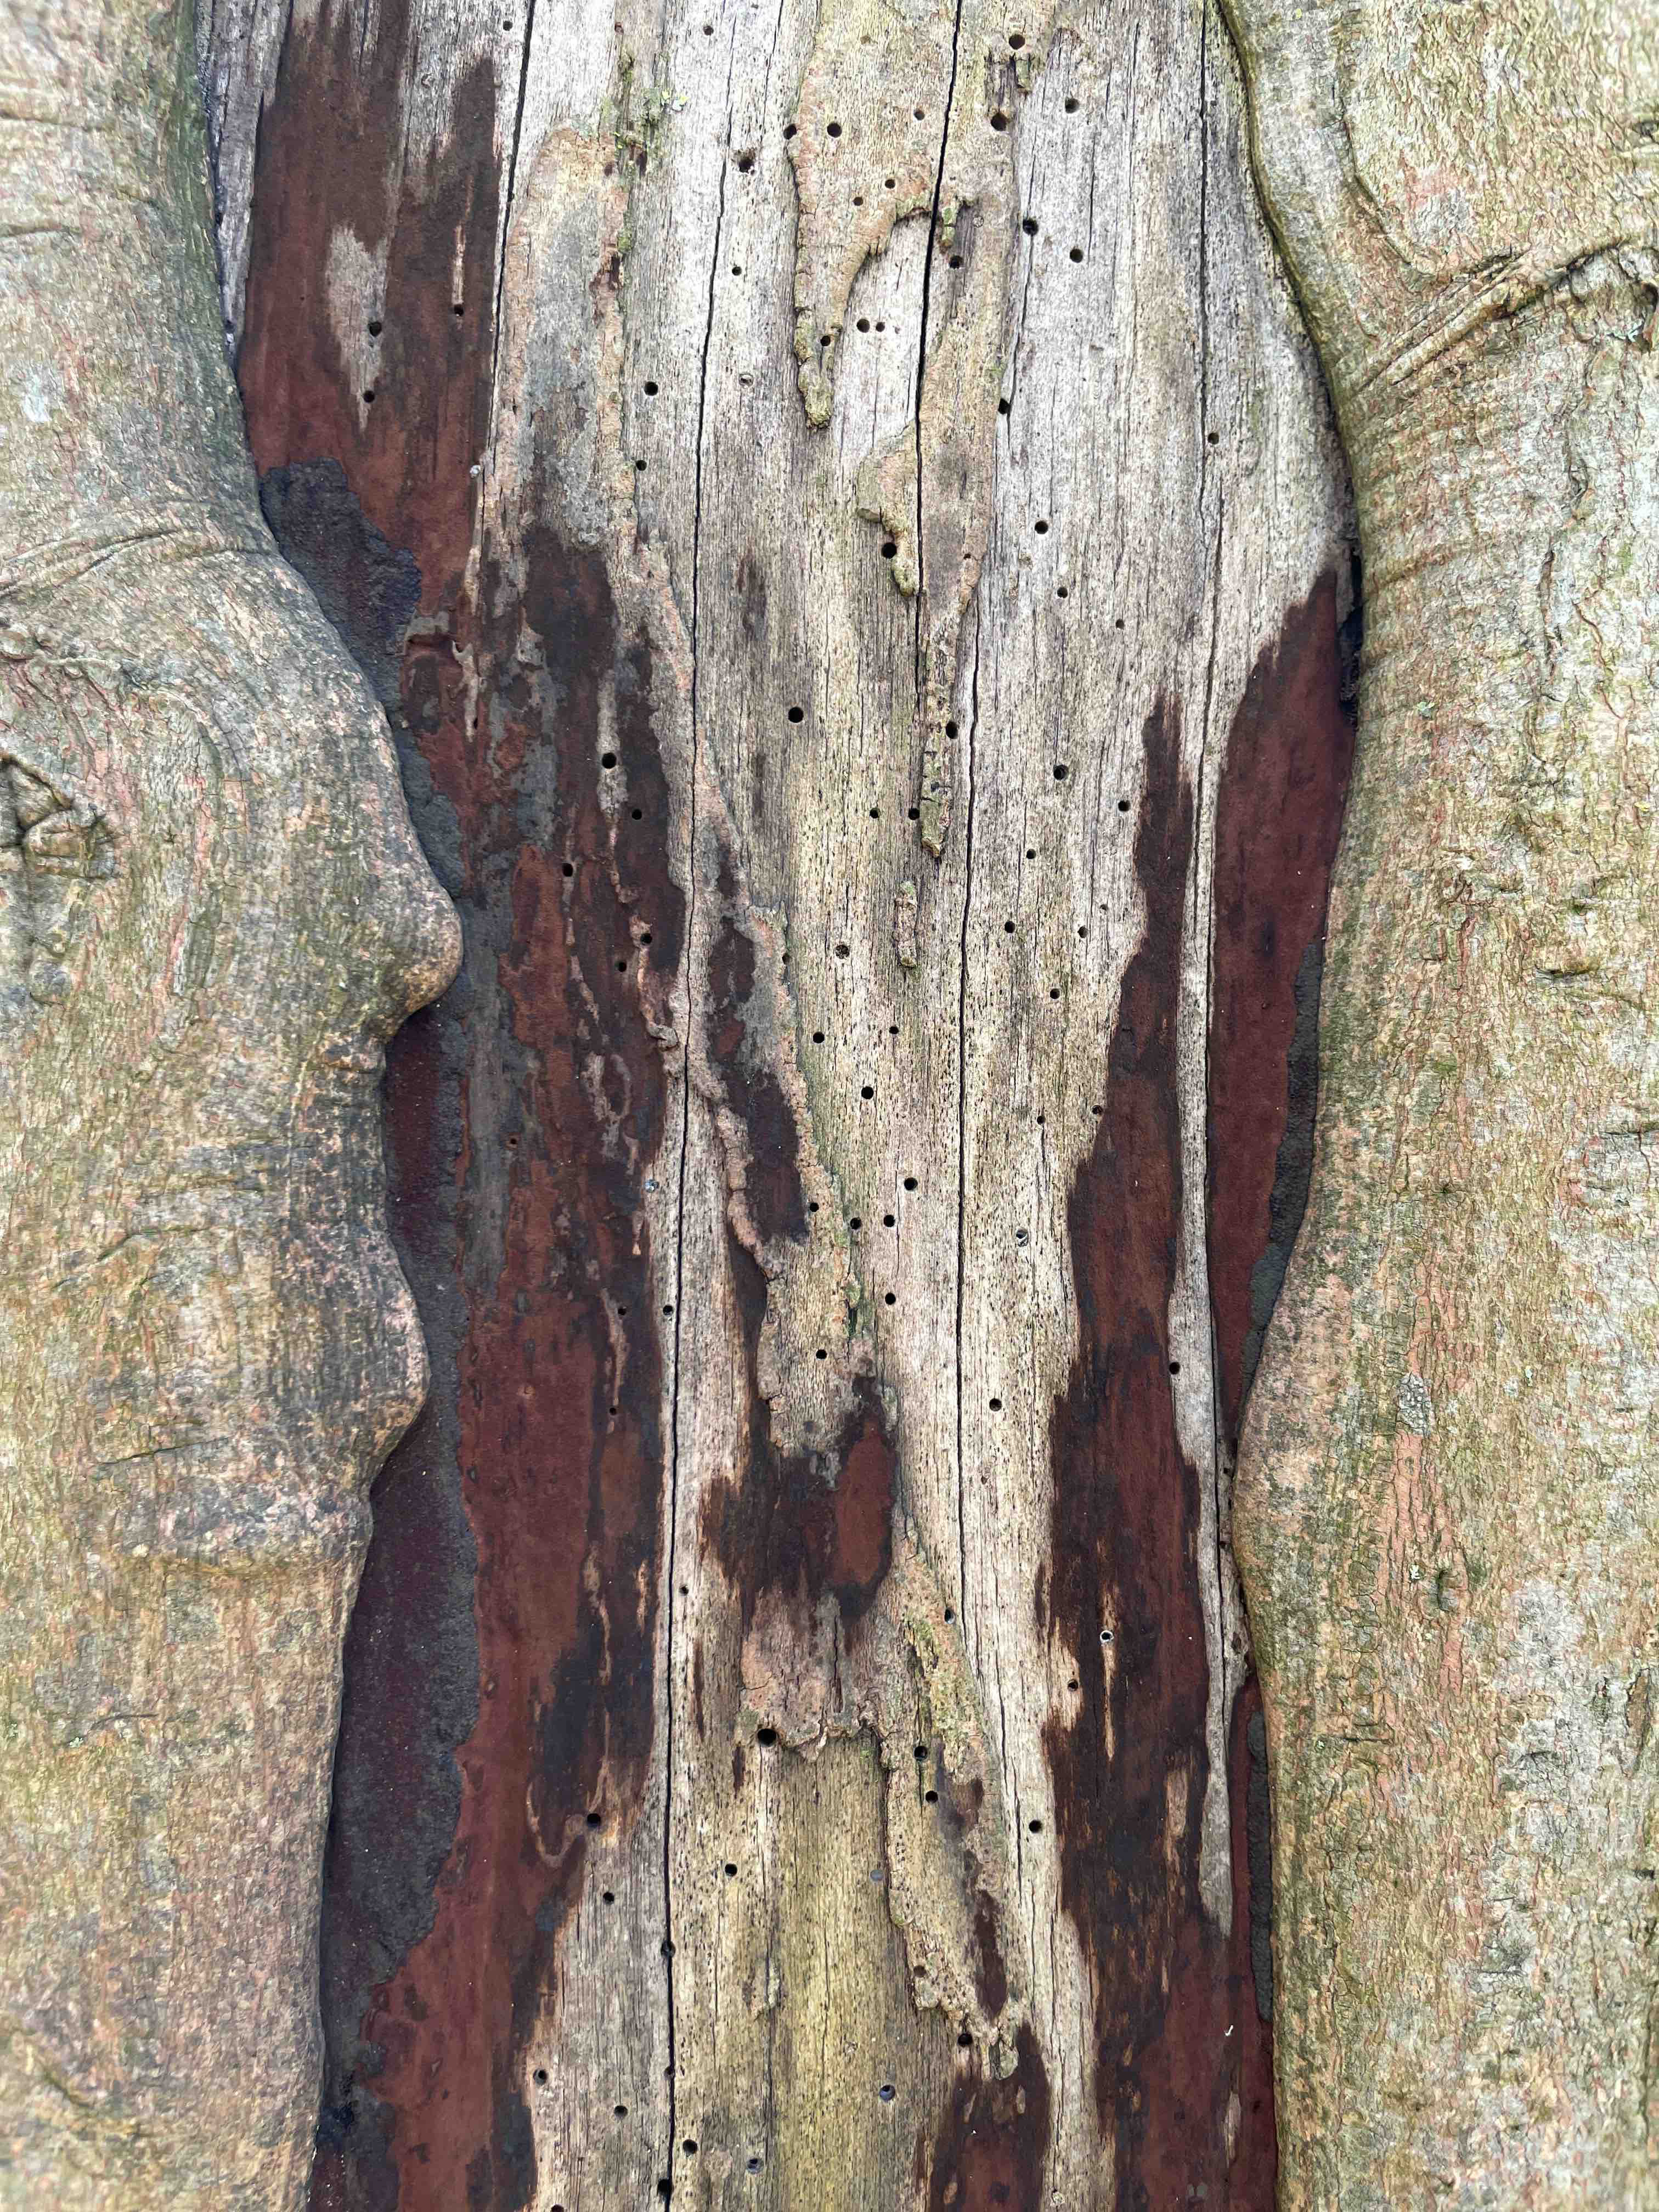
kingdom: Fungi
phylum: Ascomycota
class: Sordariomycetes
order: Xylariales
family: Hypoxylaceae
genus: Hypoxylon
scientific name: Hypoxylon
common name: kulbær
